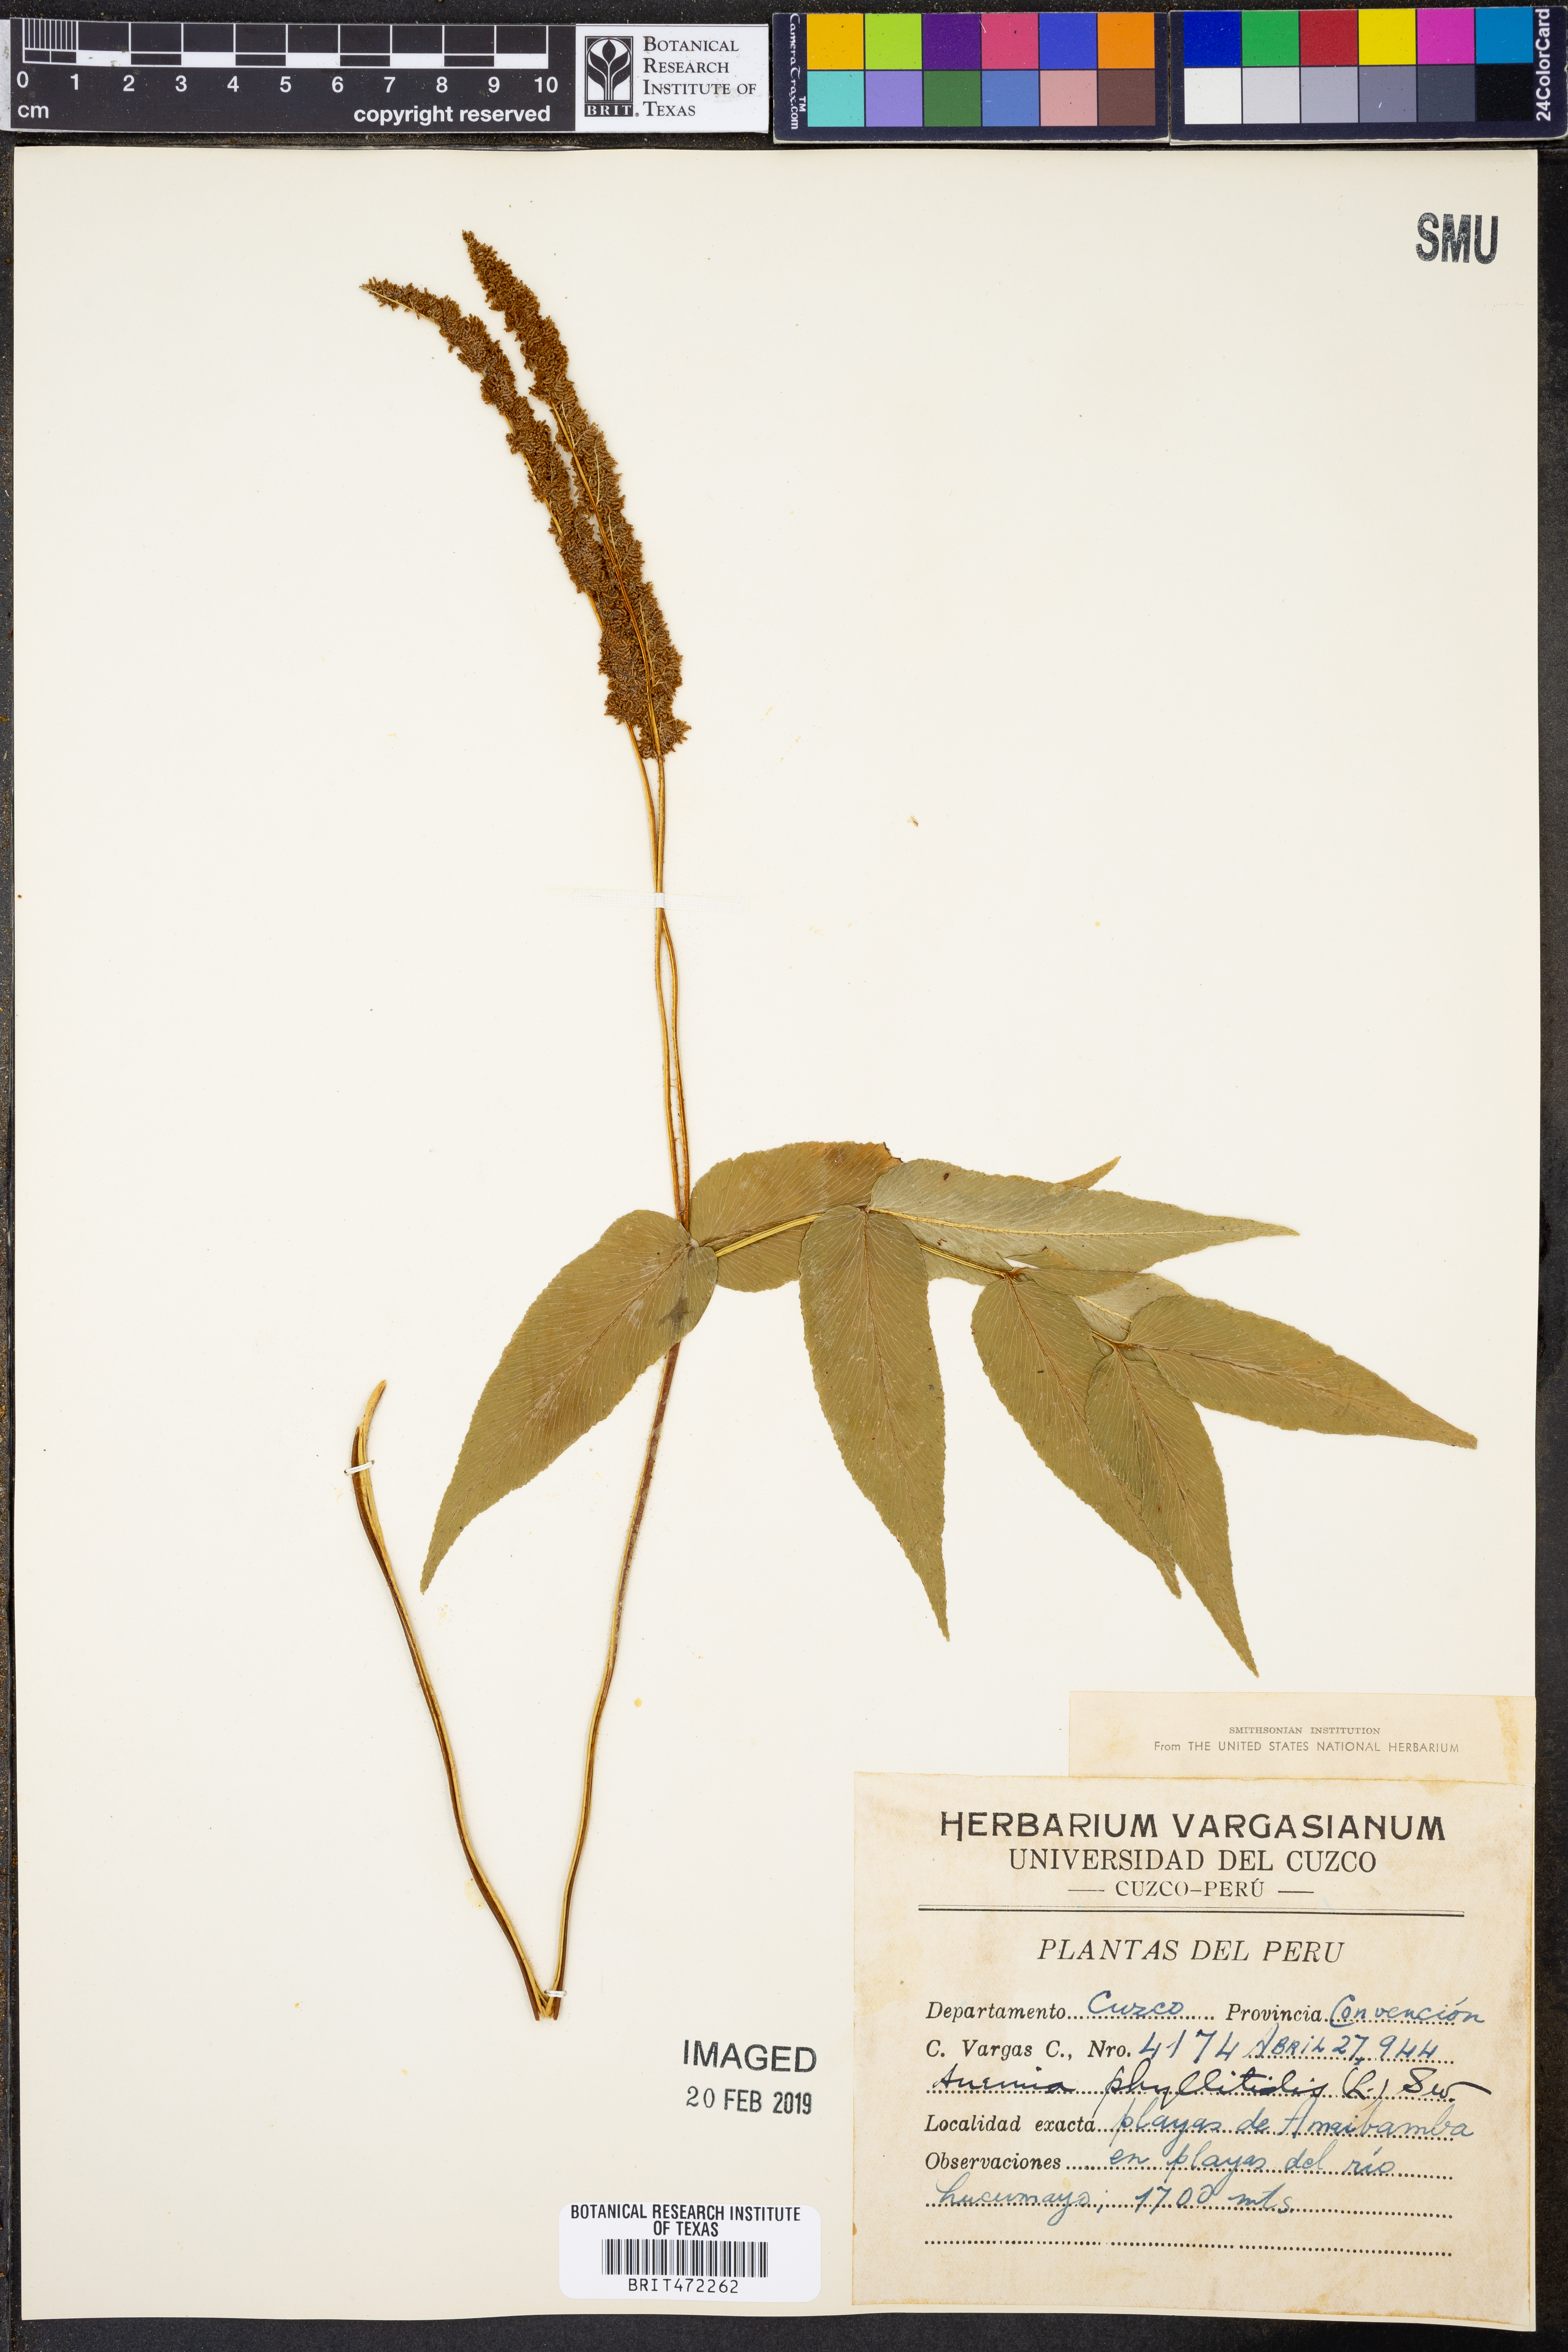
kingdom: Plantae
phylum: Tracheophyta
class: Polypodiopsida
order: Schizaeales
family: Anemiaceae
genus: Anemia
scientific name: Anemia phyllitidis
